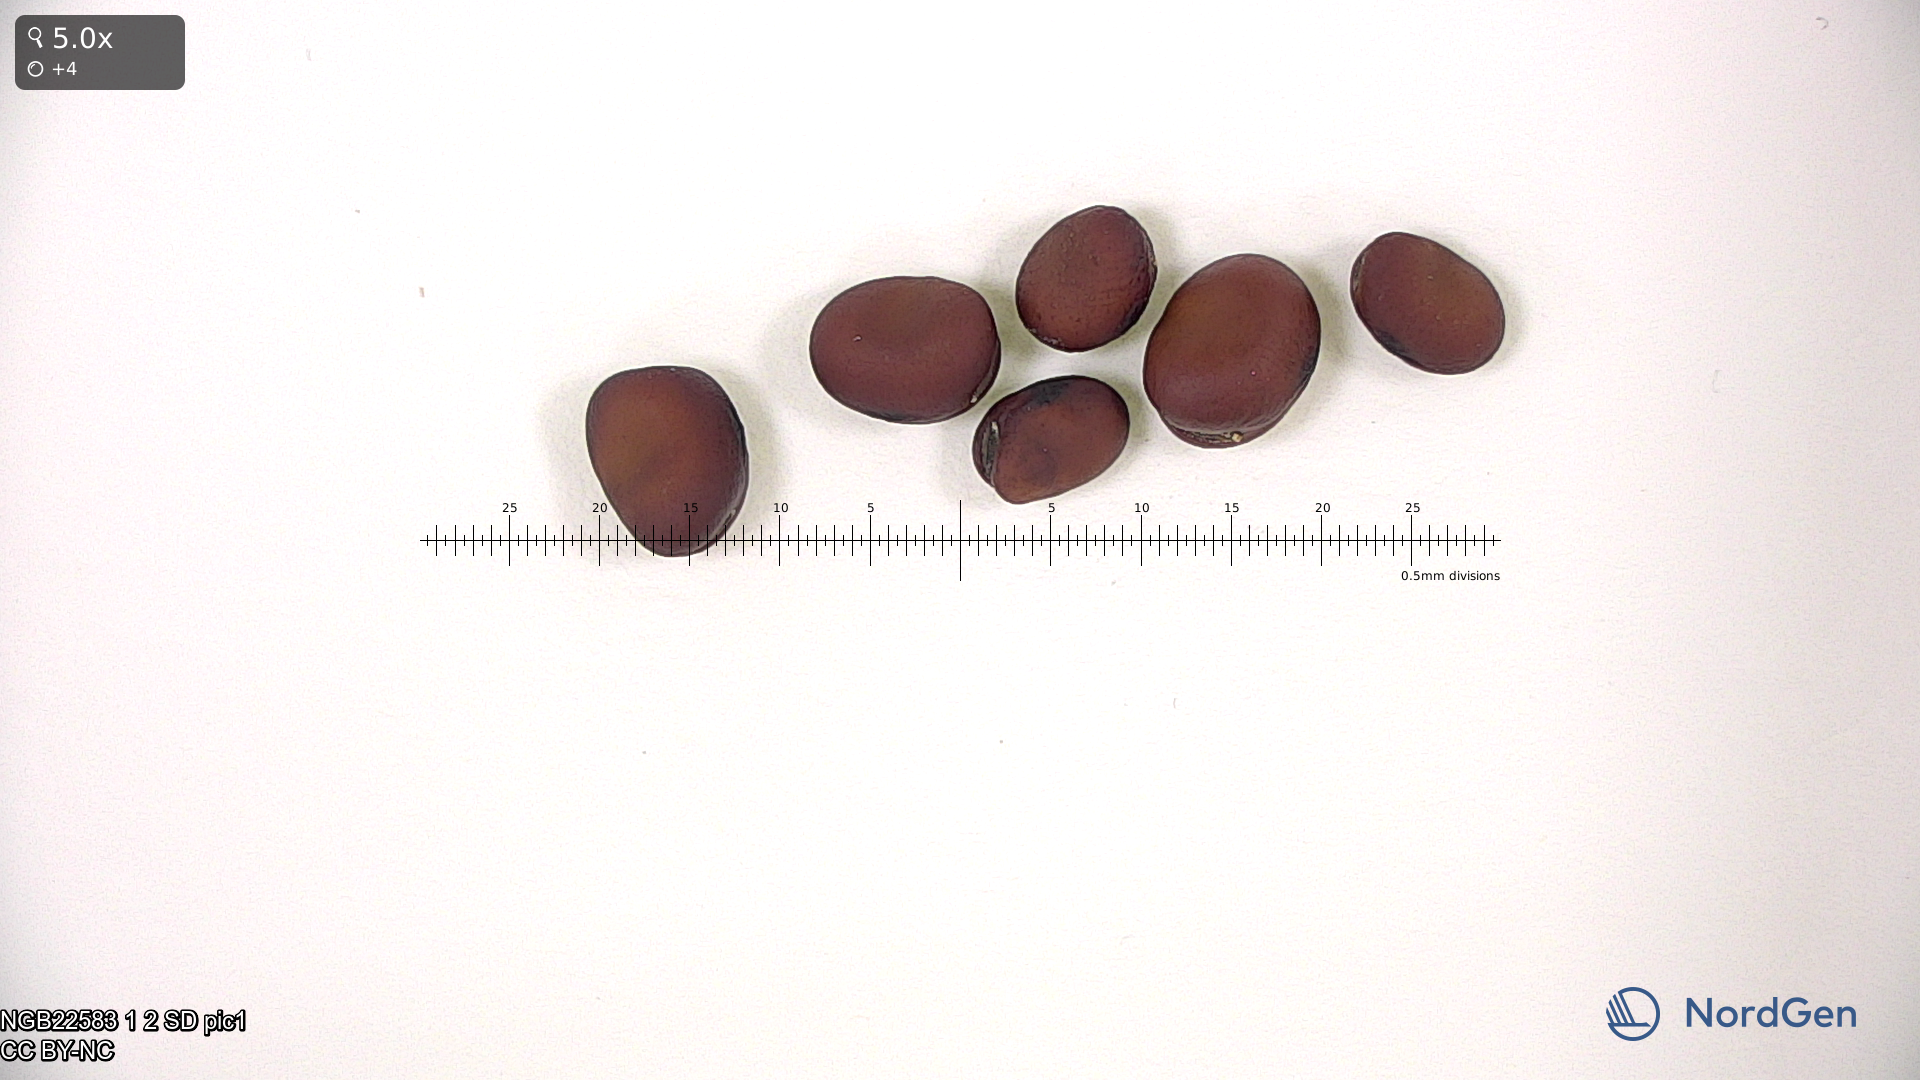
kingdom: Plantae
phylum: Tracheophyta
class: Magnoliopsida
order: Fabales
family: Fabaceae
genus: Vicia
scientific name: Vicia faba
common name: Broad bean
